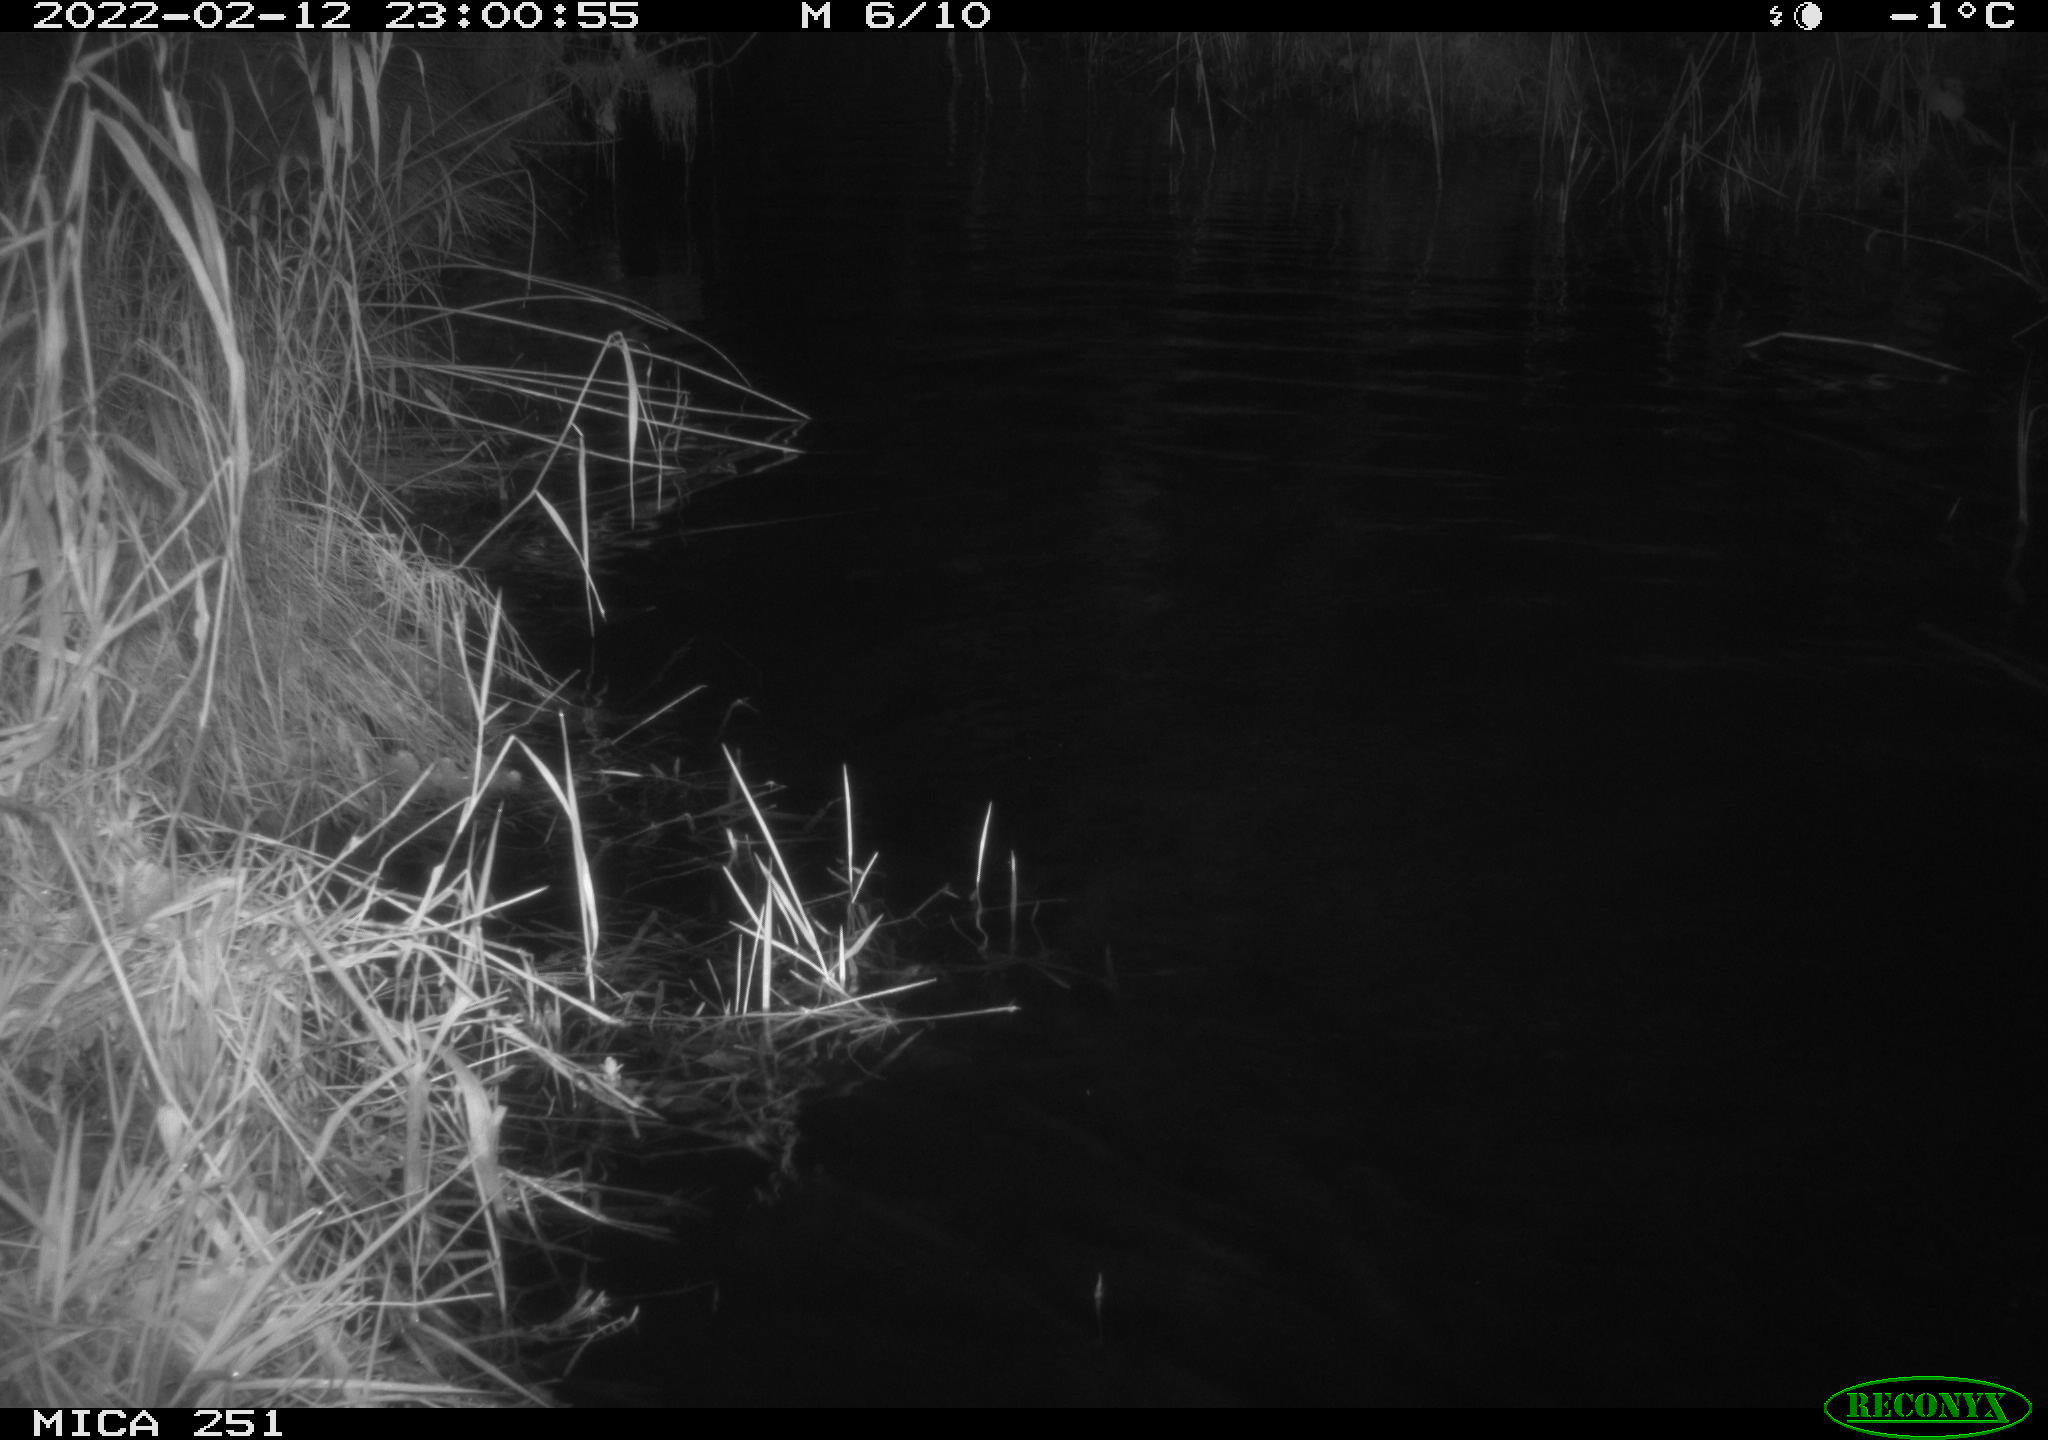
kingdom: Animalia
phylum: Chordata
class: Mammalia
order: Rodentia
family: Myocastoridae
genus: Myocastor
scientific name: Myocastor coypus
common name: Coypu
